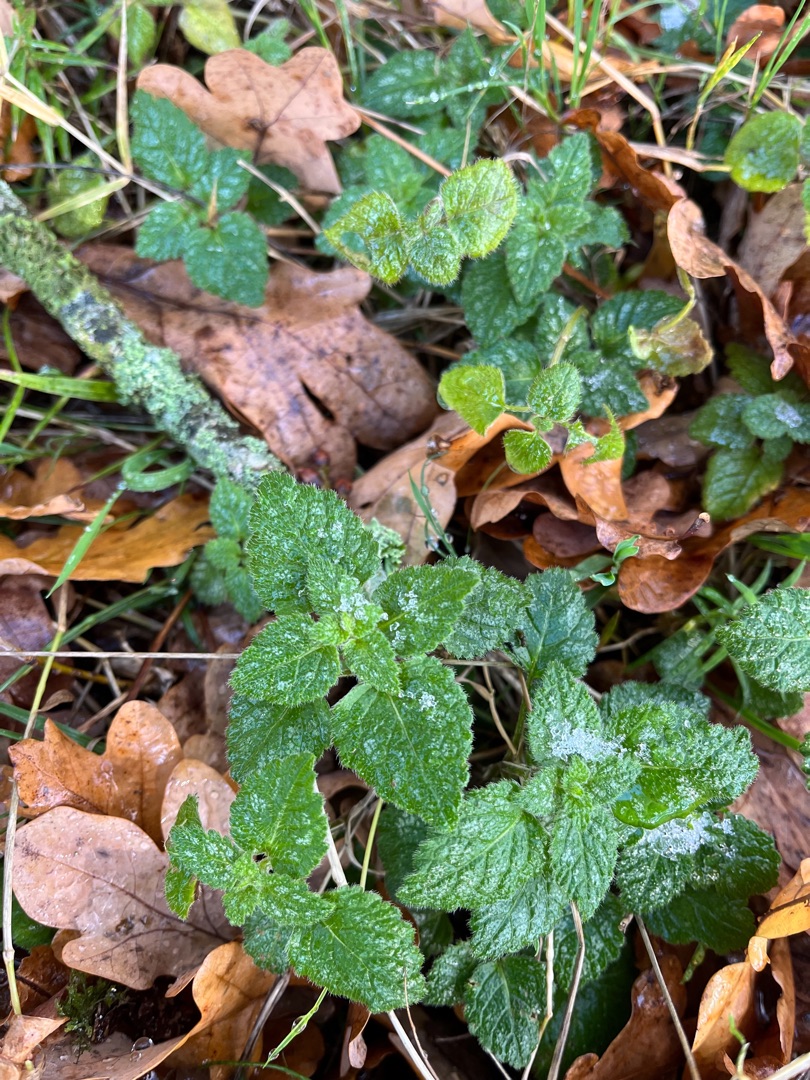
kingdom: Plantae
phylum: Tracheophyta
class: Magnoliopsida
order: Lamiales
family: Lamiaceae
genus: Lamium
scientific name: Lamium galeobdolon
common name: Almindelig guldnælde
